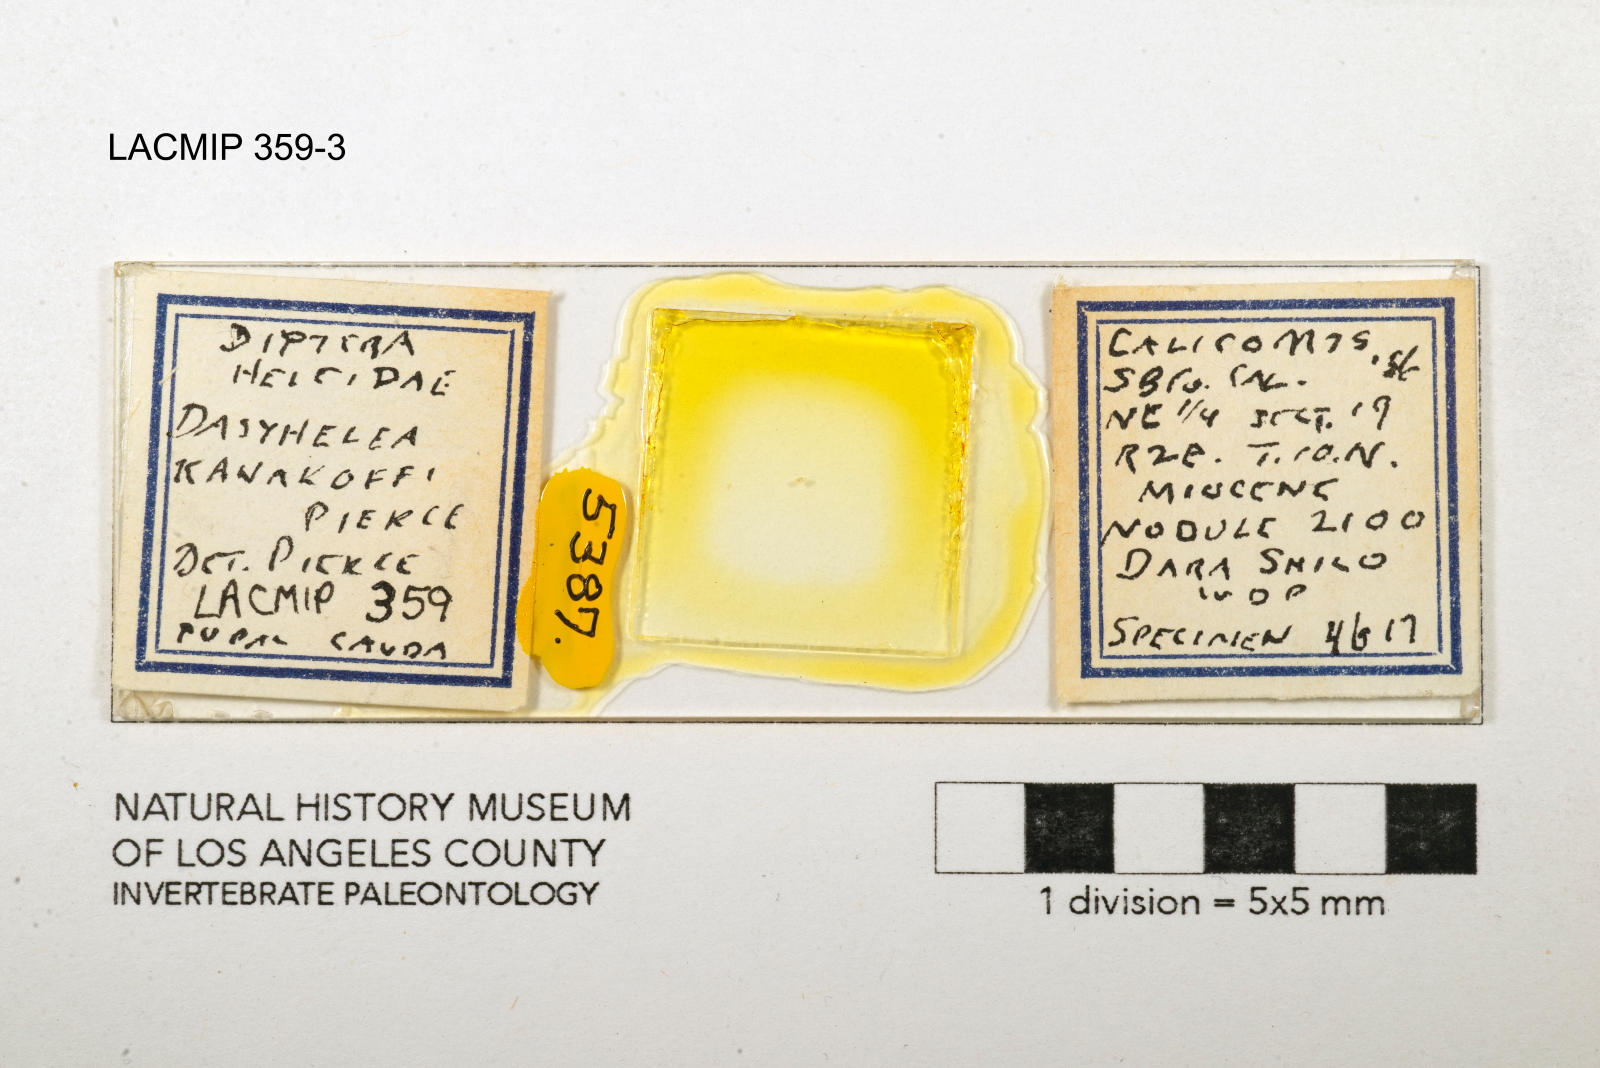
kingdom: Animalia
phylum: Arthropoda
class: Insecta
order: Diptera
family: Ceratopogonidae
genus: Dasyhelea
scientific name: Dasyhelea kanakoffi
